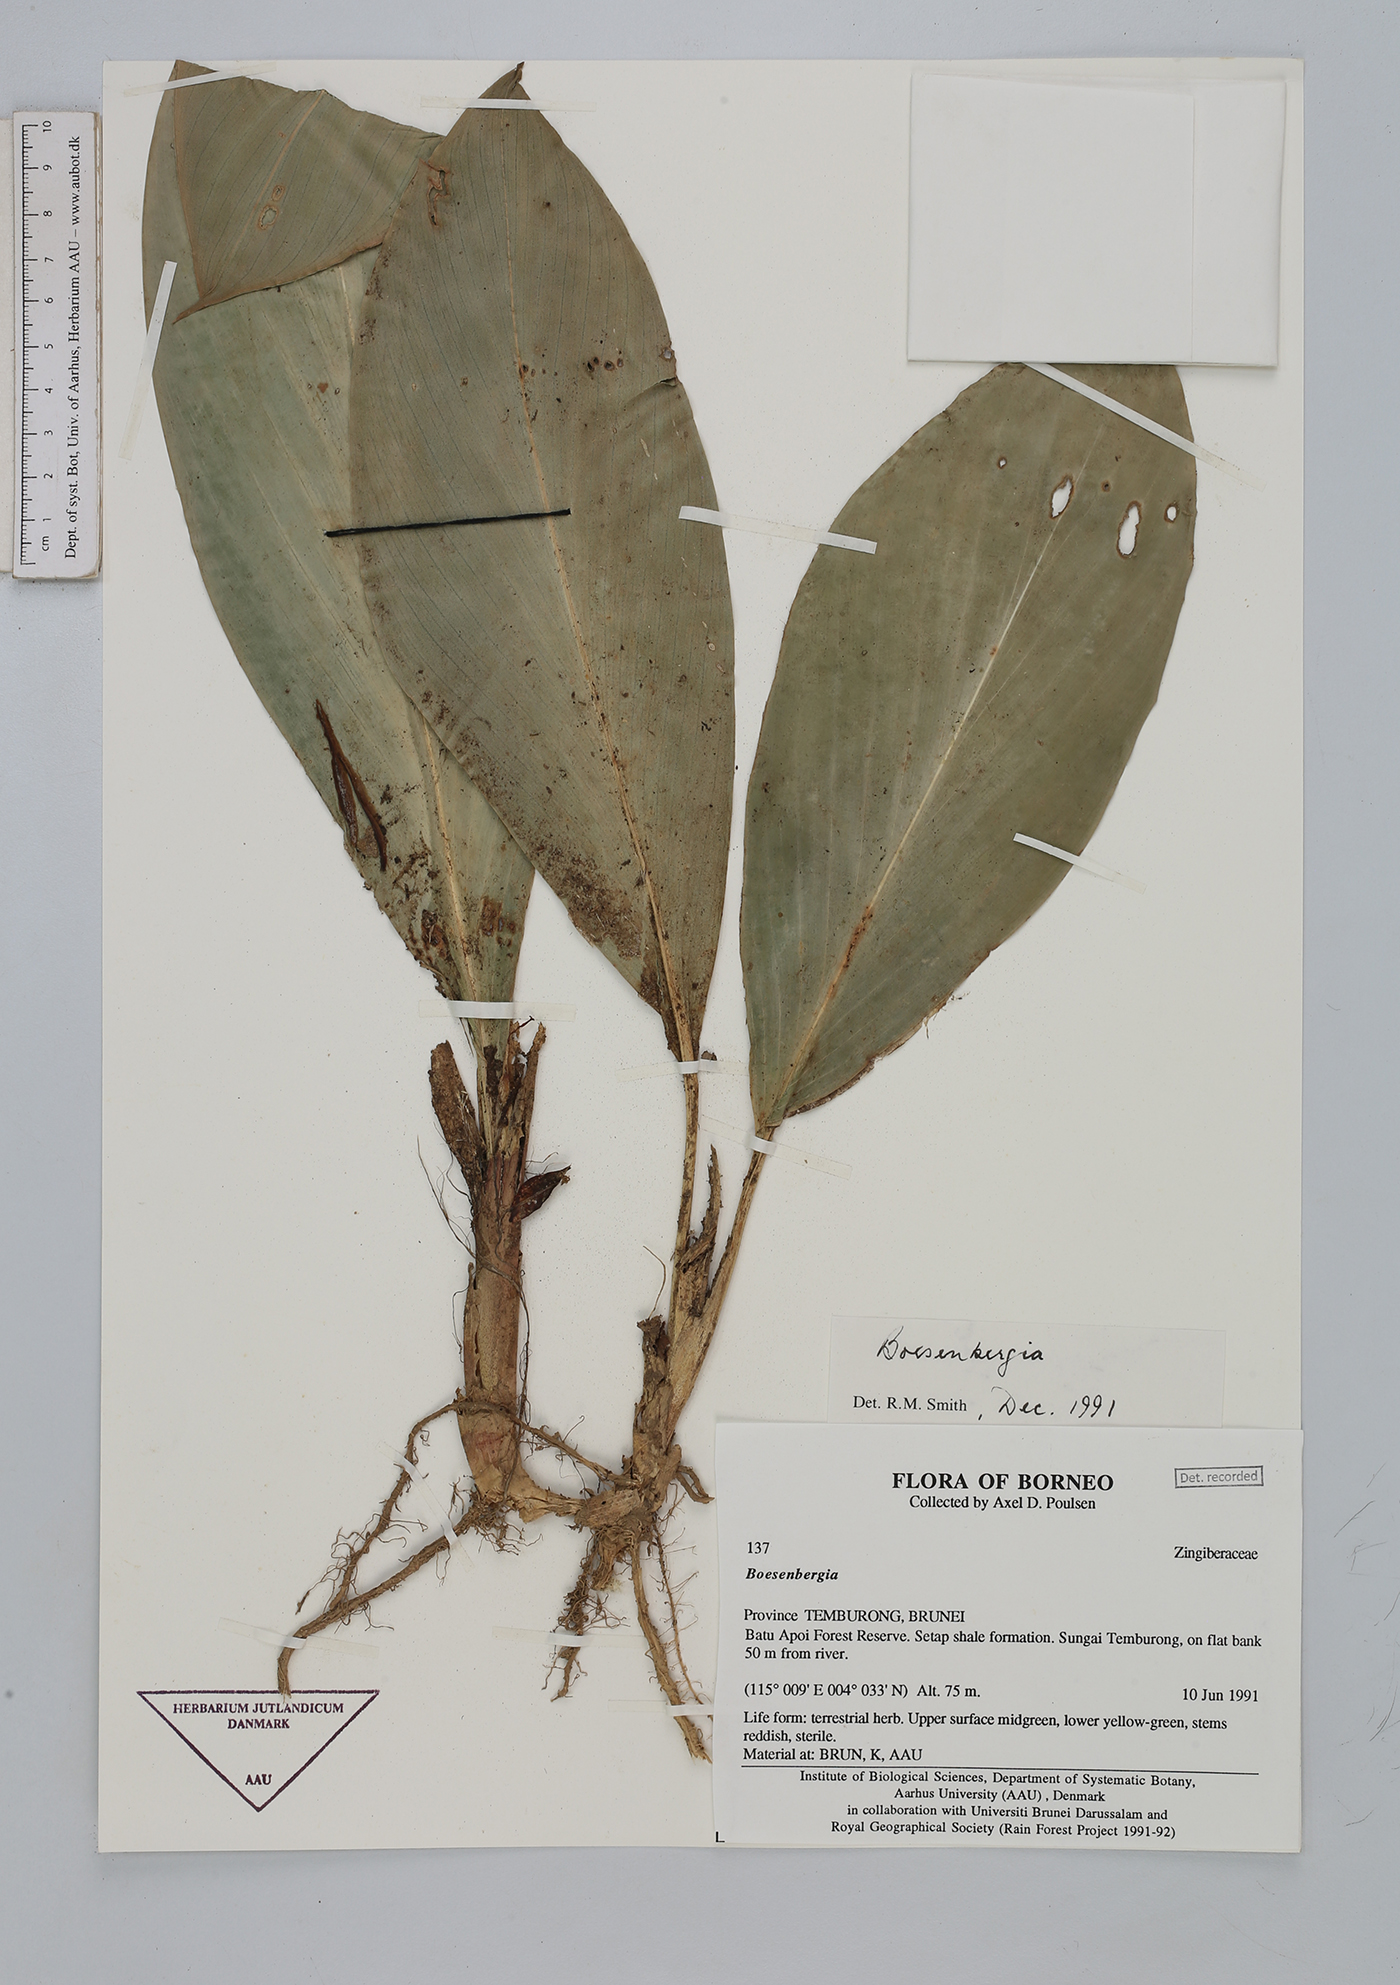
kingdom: Plantae
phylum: Tracheophyta
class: Liliopsida
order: Zingiberales
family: Zingiberaceae
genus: Boesenbergia
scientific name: Boesenbergia
